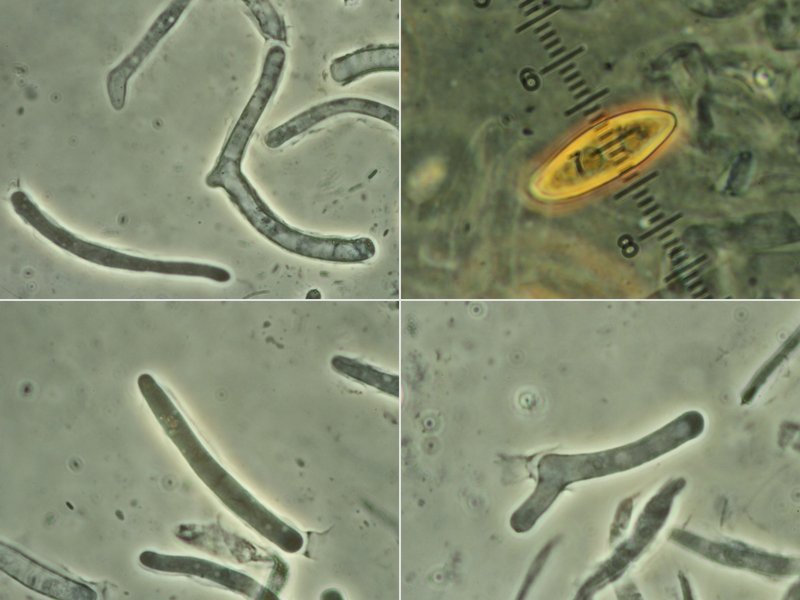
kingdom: Fungi
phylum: Basidiomycota
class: Agaricomycetes
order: Boletales
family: Boletaceae
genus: Leccinum
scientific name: Leccinum cyaneobasileucum
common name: almindelig skælrørhat
